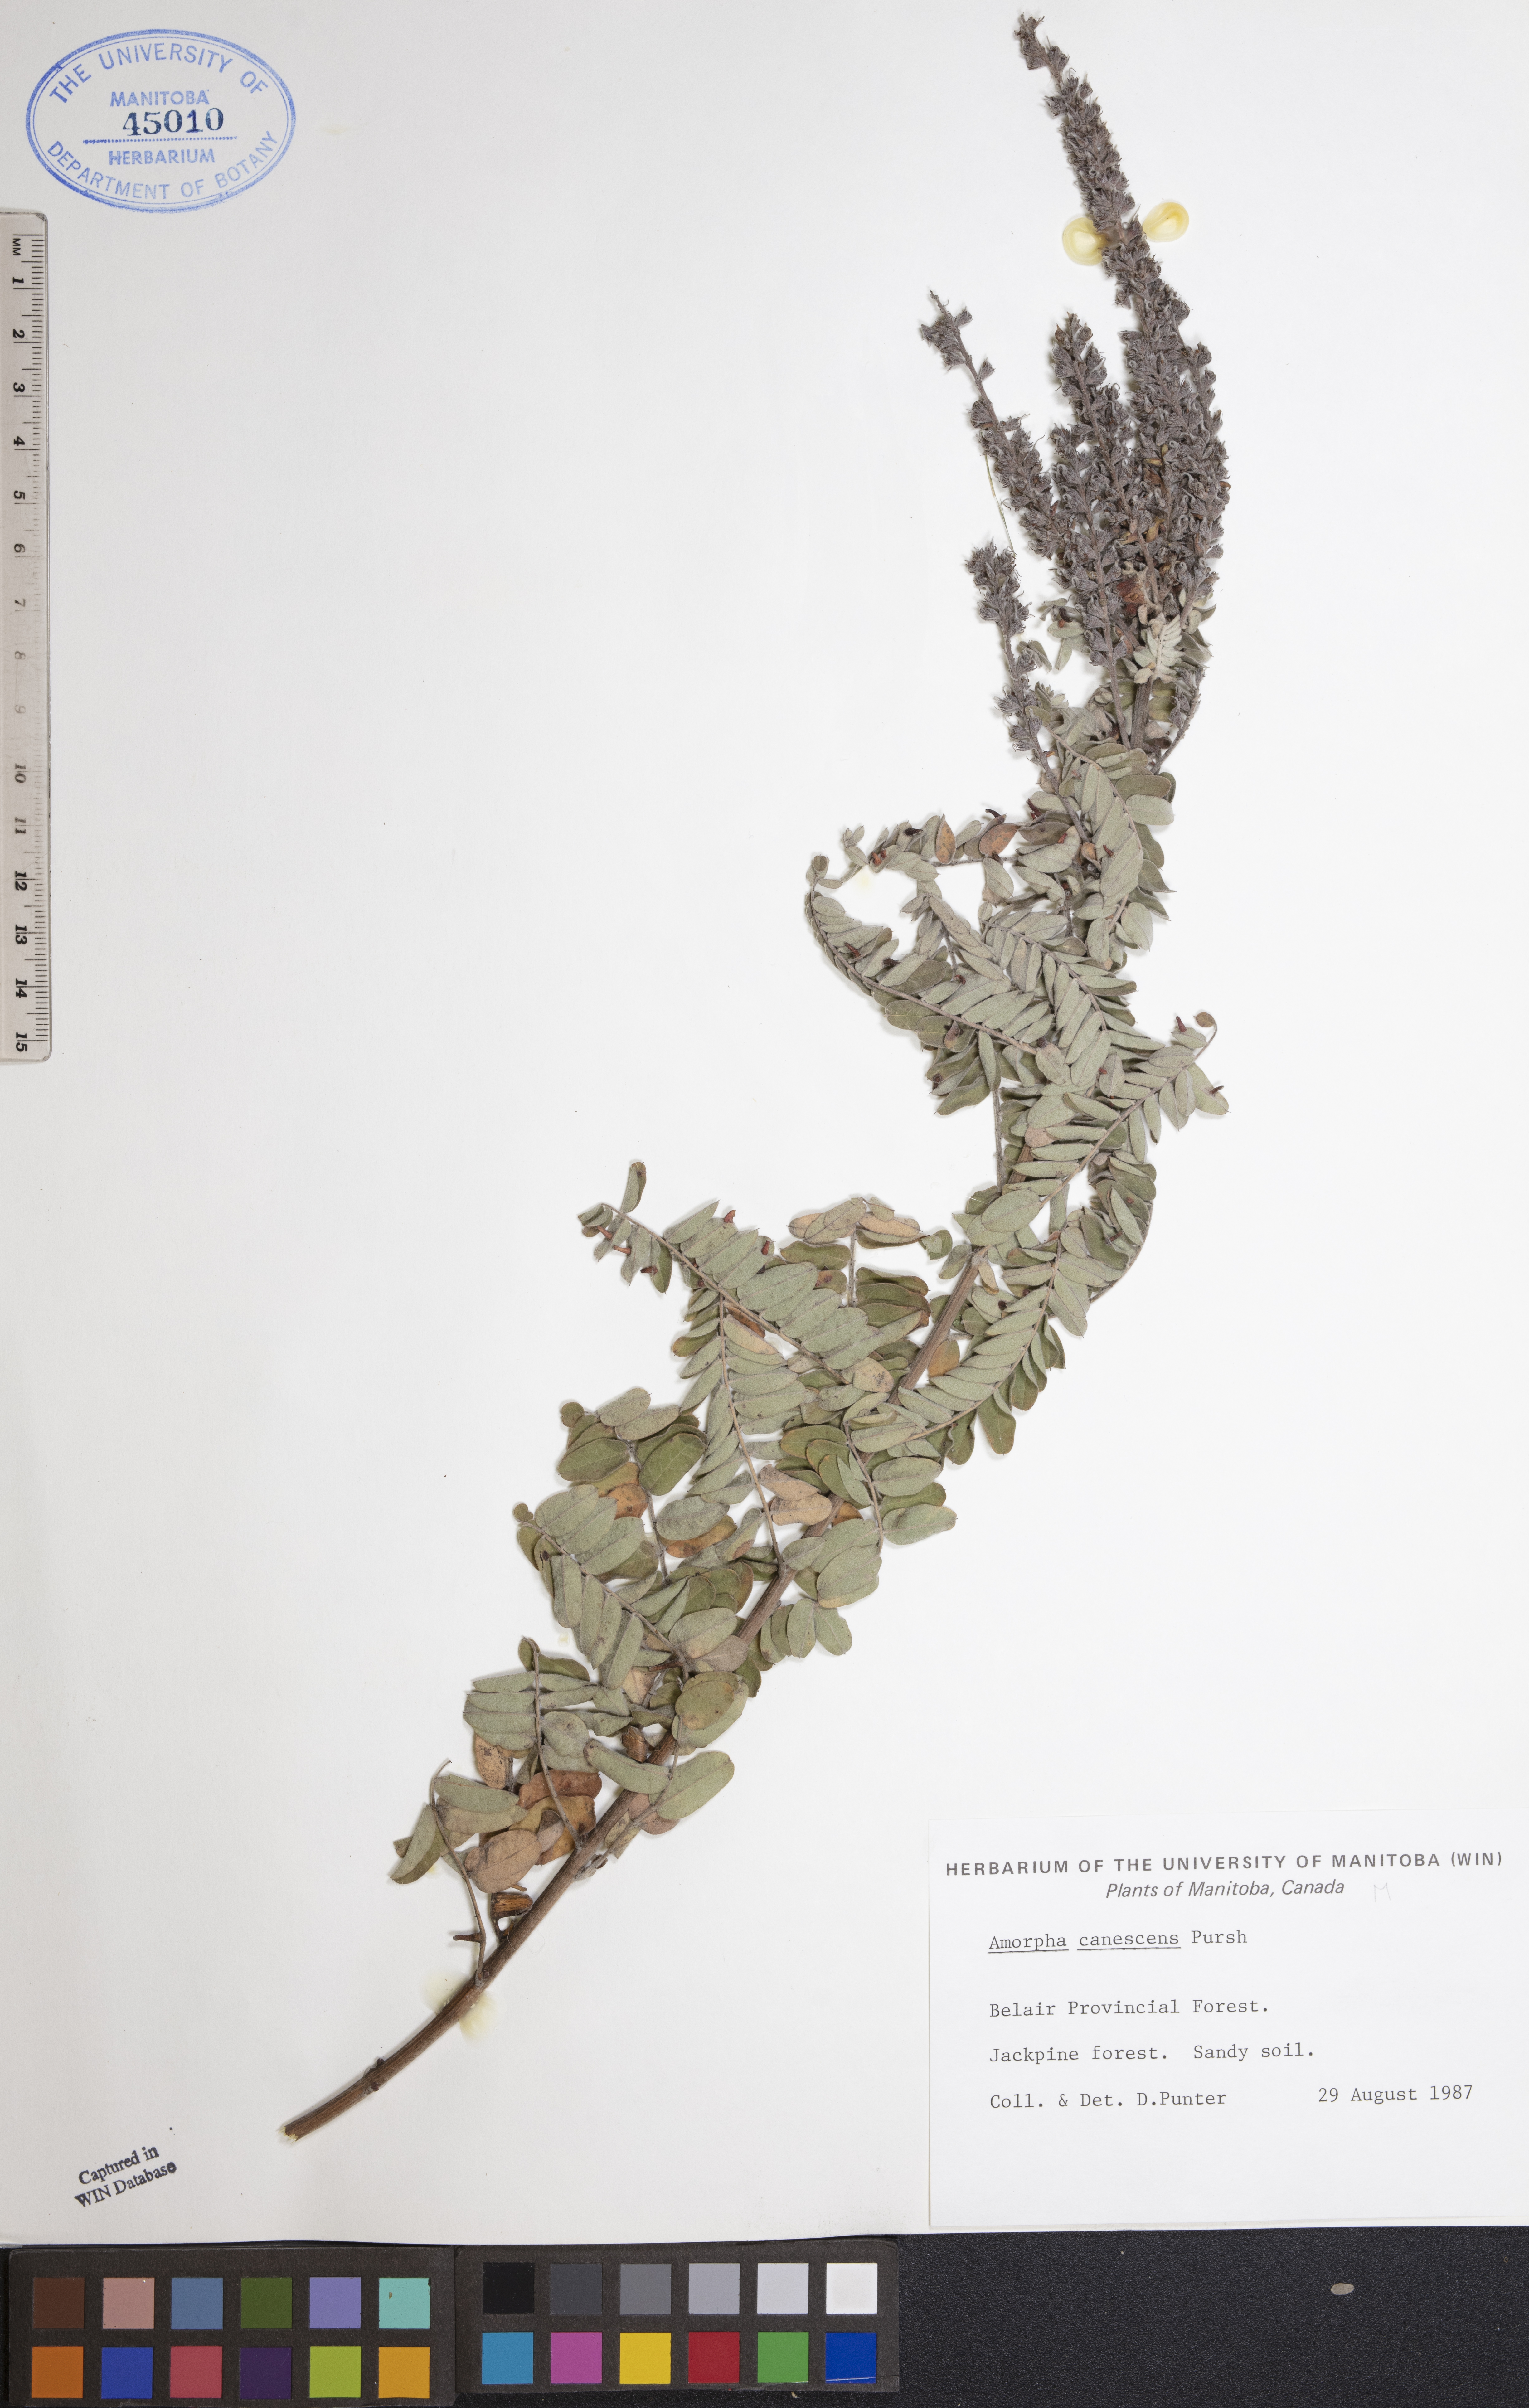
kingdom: Plantae
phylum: Tracheophyta
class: Magnoliopsida
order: Fabales
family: Fabaceae
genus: Amorpha
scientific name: Amorpha canescens
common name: Leadplant
